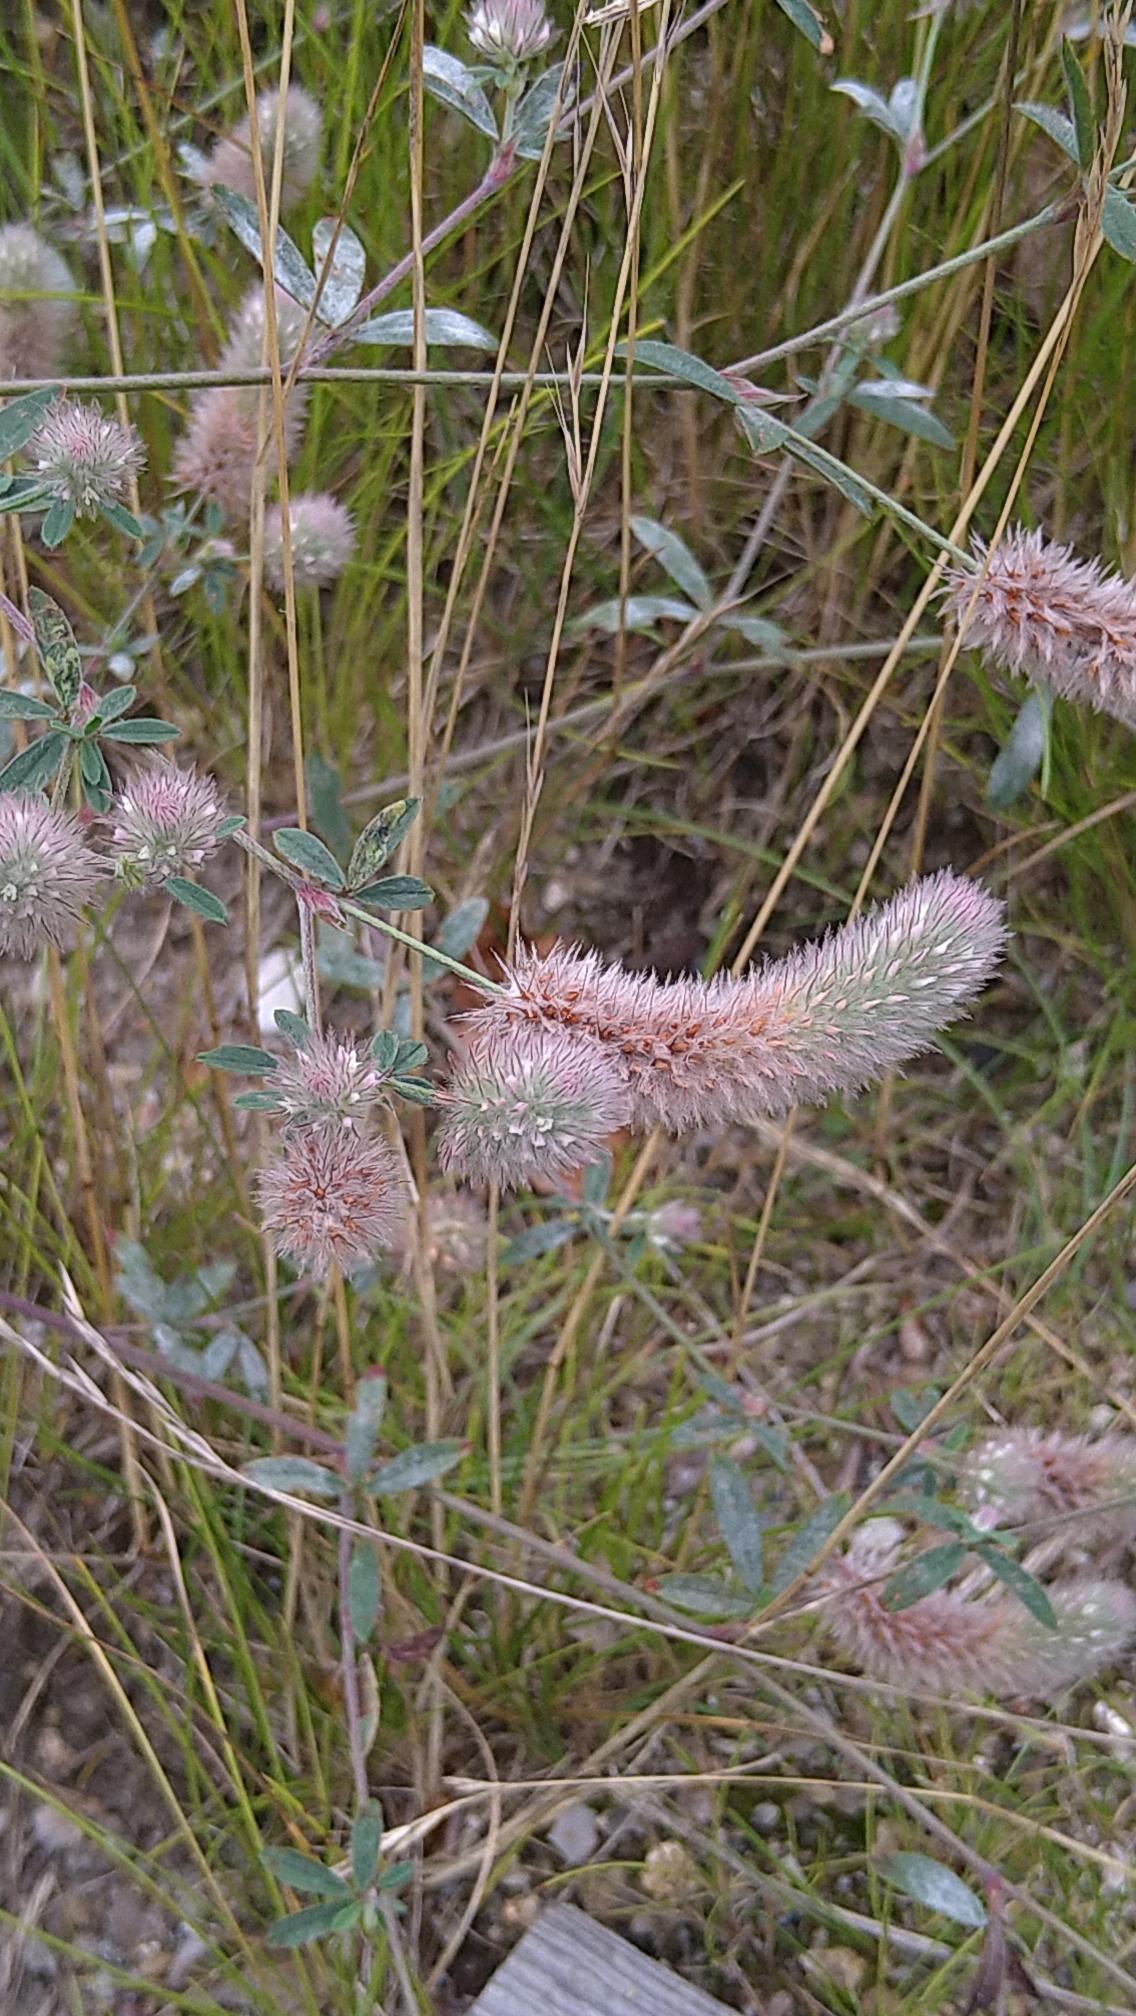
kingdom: Plantae
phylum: Tracheophyta
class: Magnoliopsida
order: Fabales
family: Fabaceae
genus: Trifolium
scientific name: Trifolium arvense
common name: Hare-kløver
